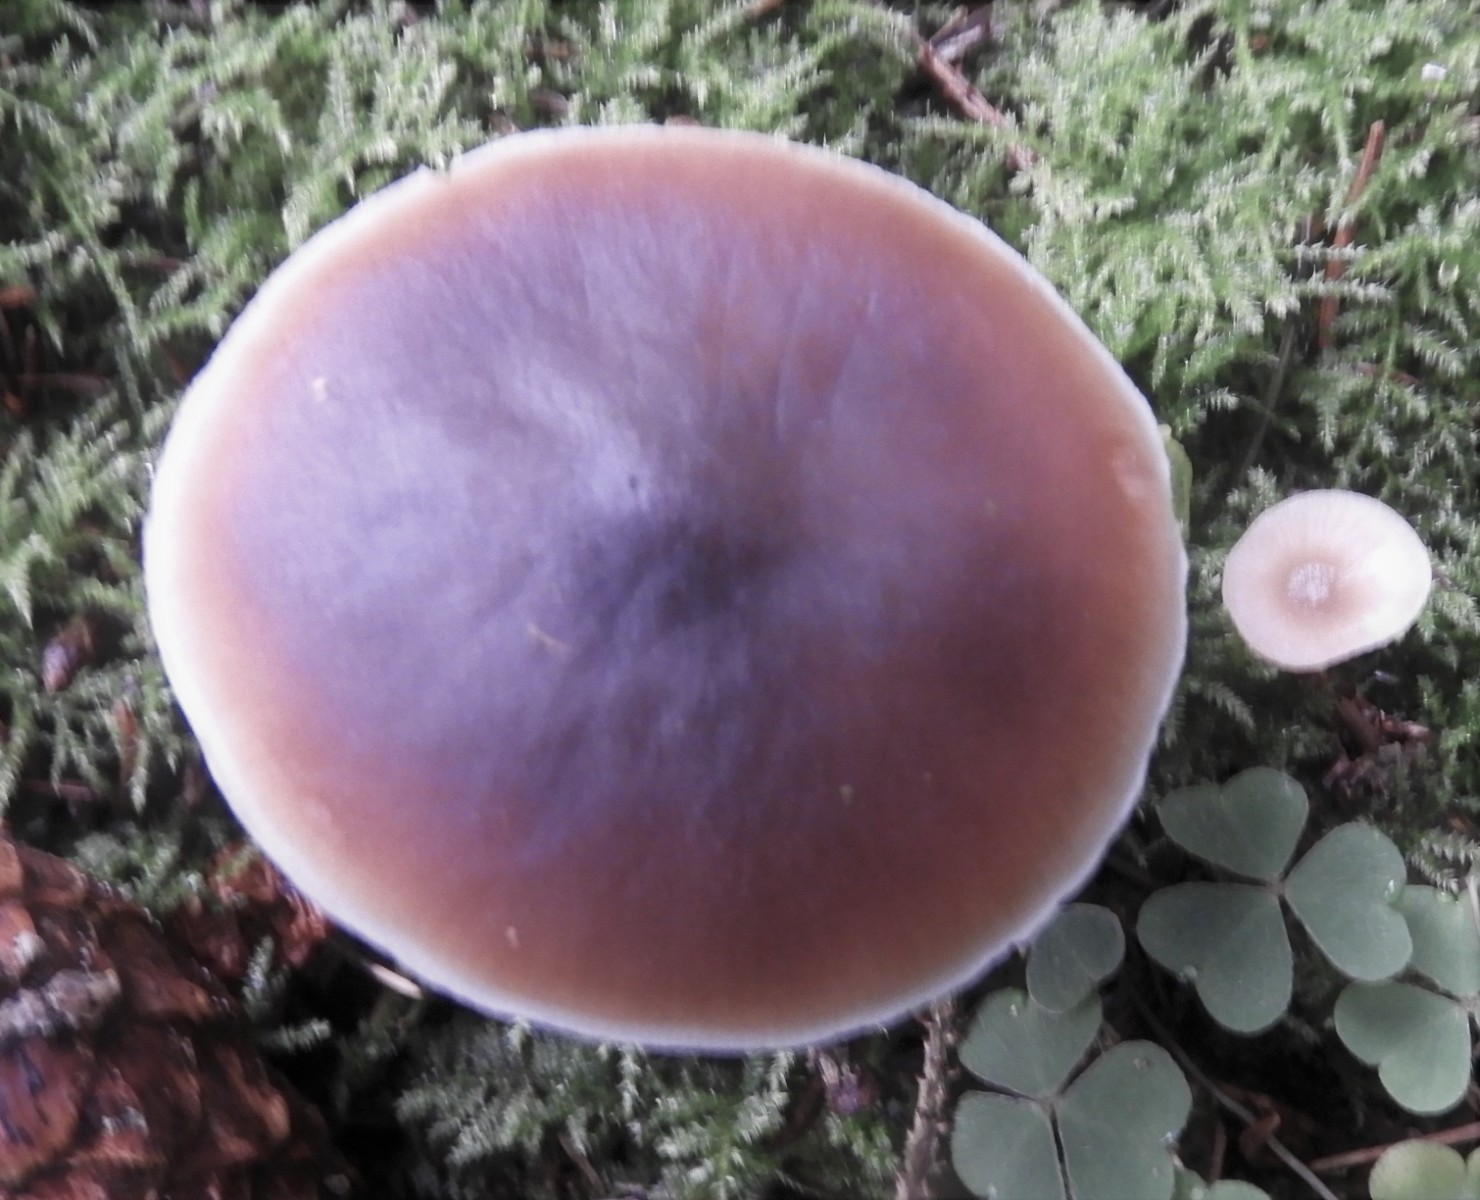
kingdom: Fungi
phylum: Basidiomycota
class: Agaricomycetes
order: Agaricales
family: Omphalotaceae
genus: Rhodocollybia
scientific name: Rhodocollybia asema
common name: horngrå fladhat
